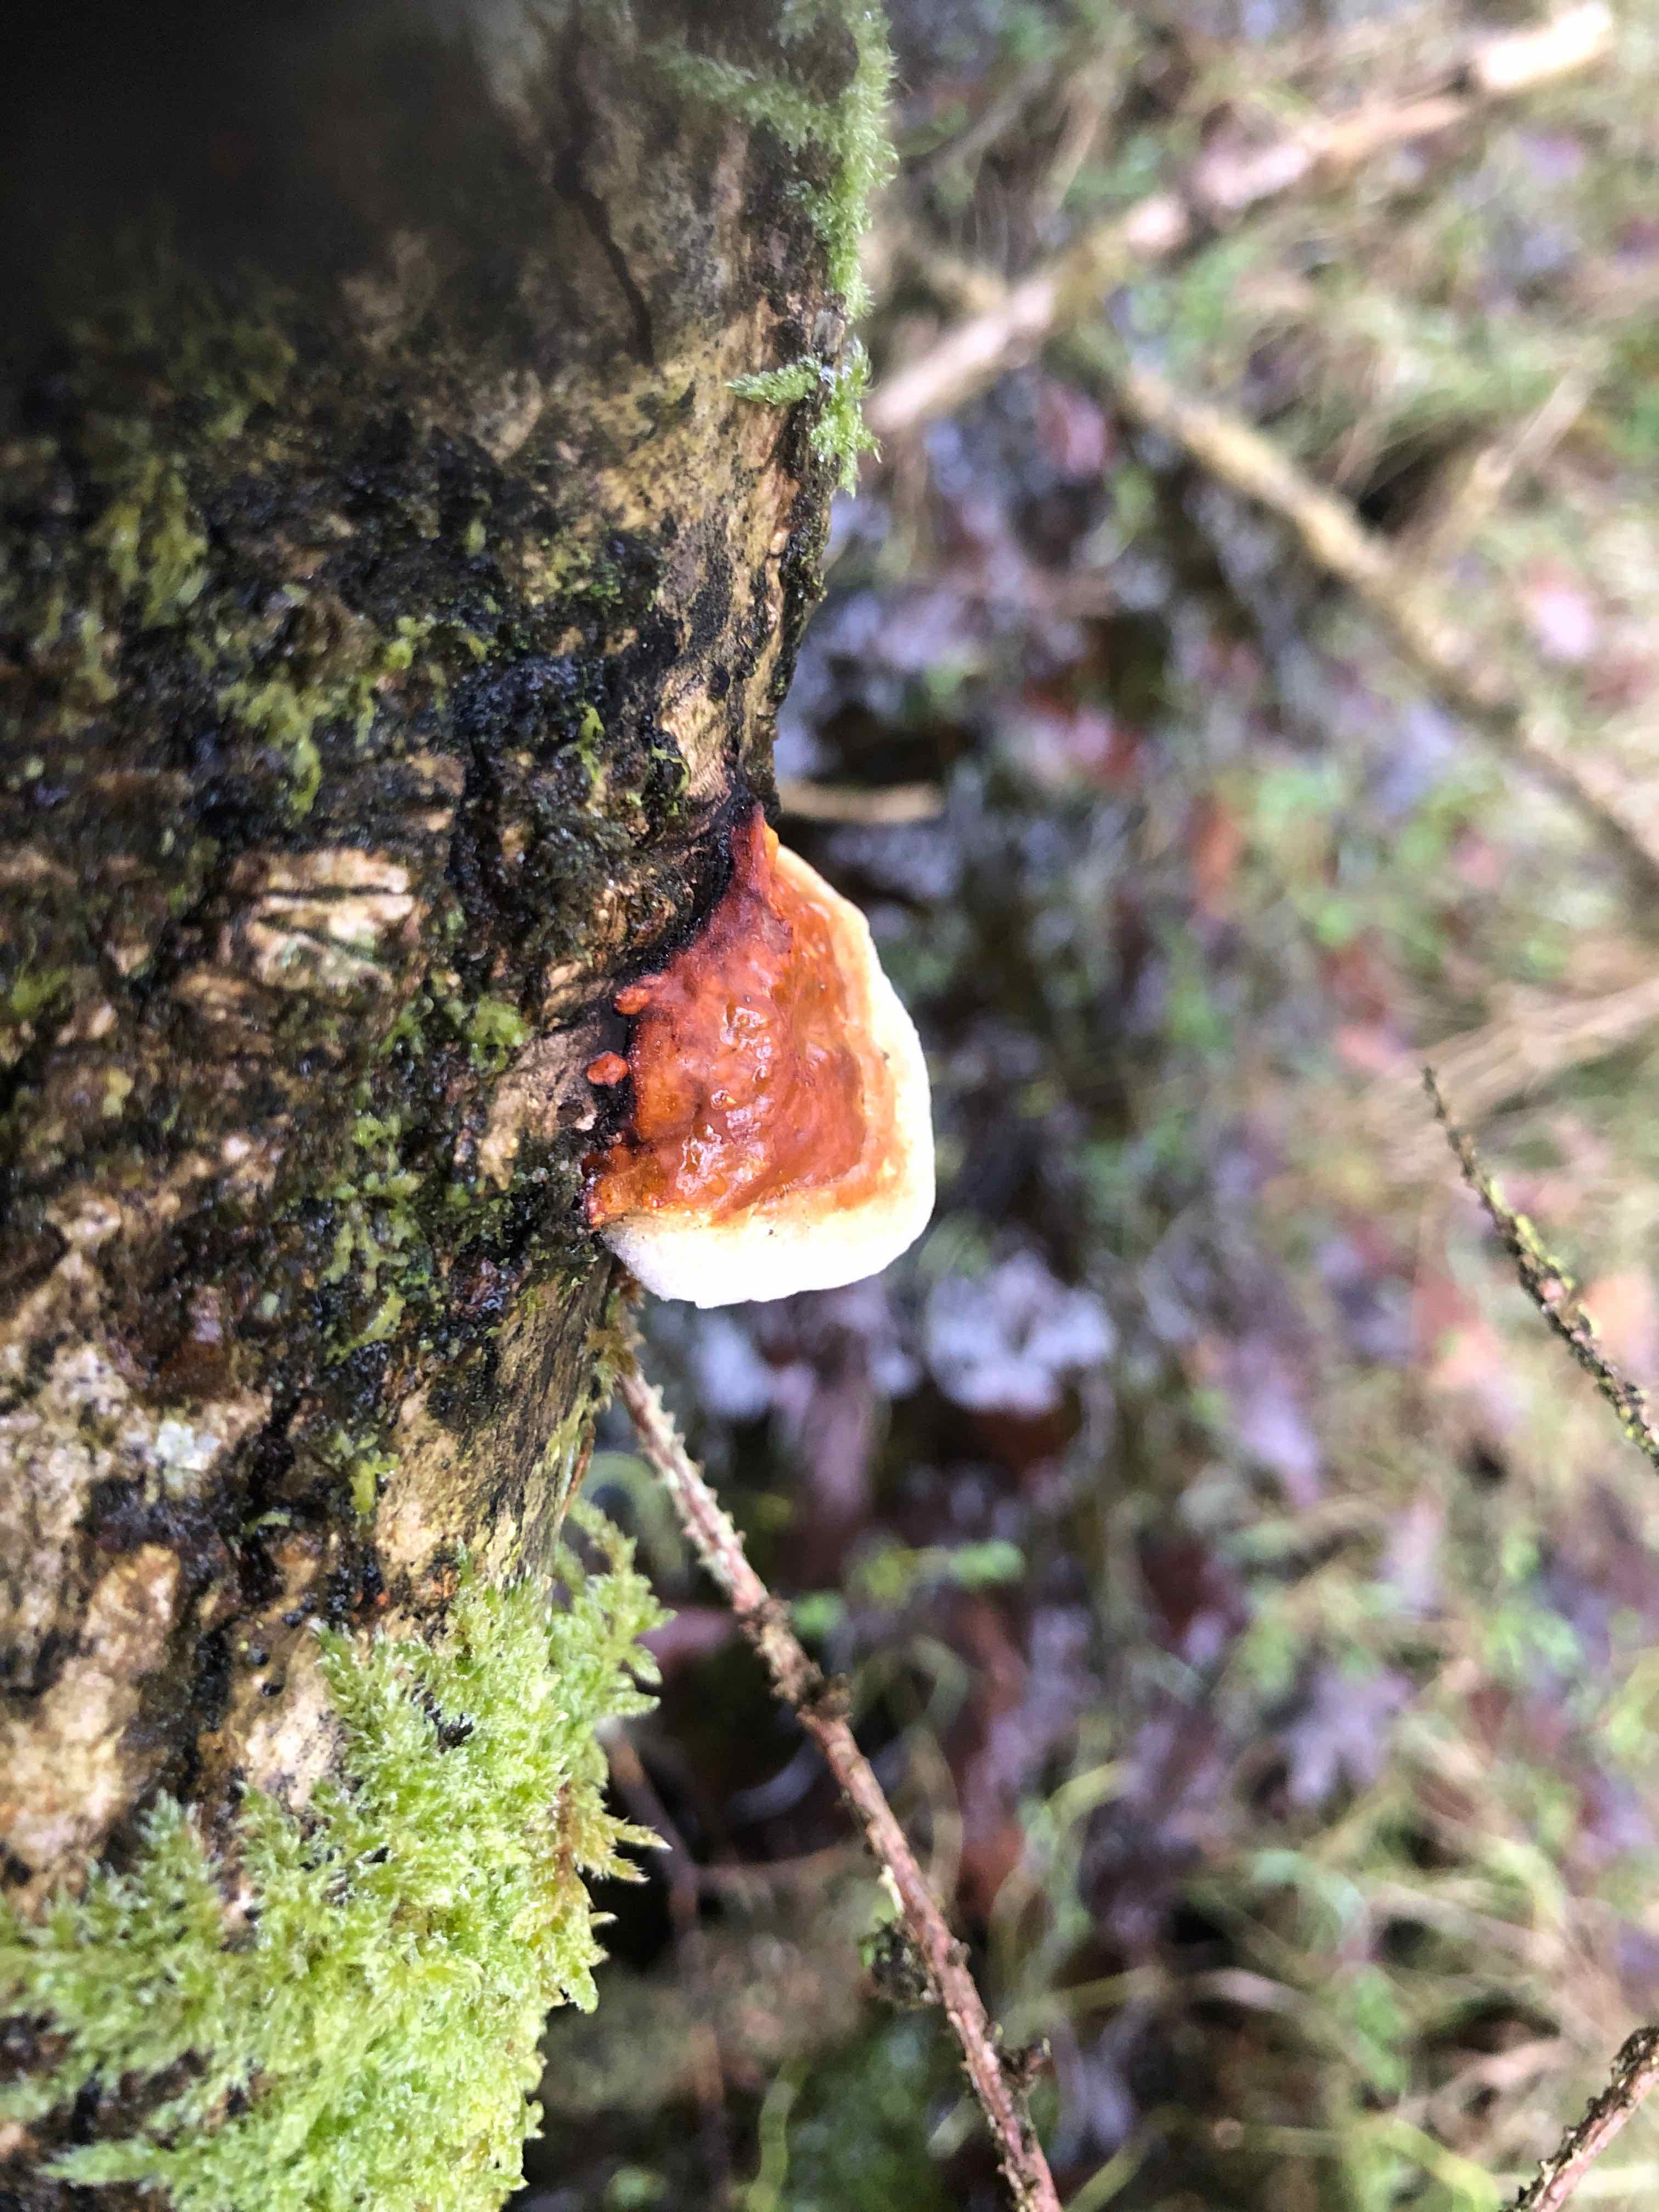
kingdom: Fungi
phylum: Basidiomycota
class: Agaricomycetes
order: Polyporales
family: Fomitopsidaceae
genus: Fomitopsis
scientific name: Fomitopsis pinicola
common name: randbæltet hovporesvamp
